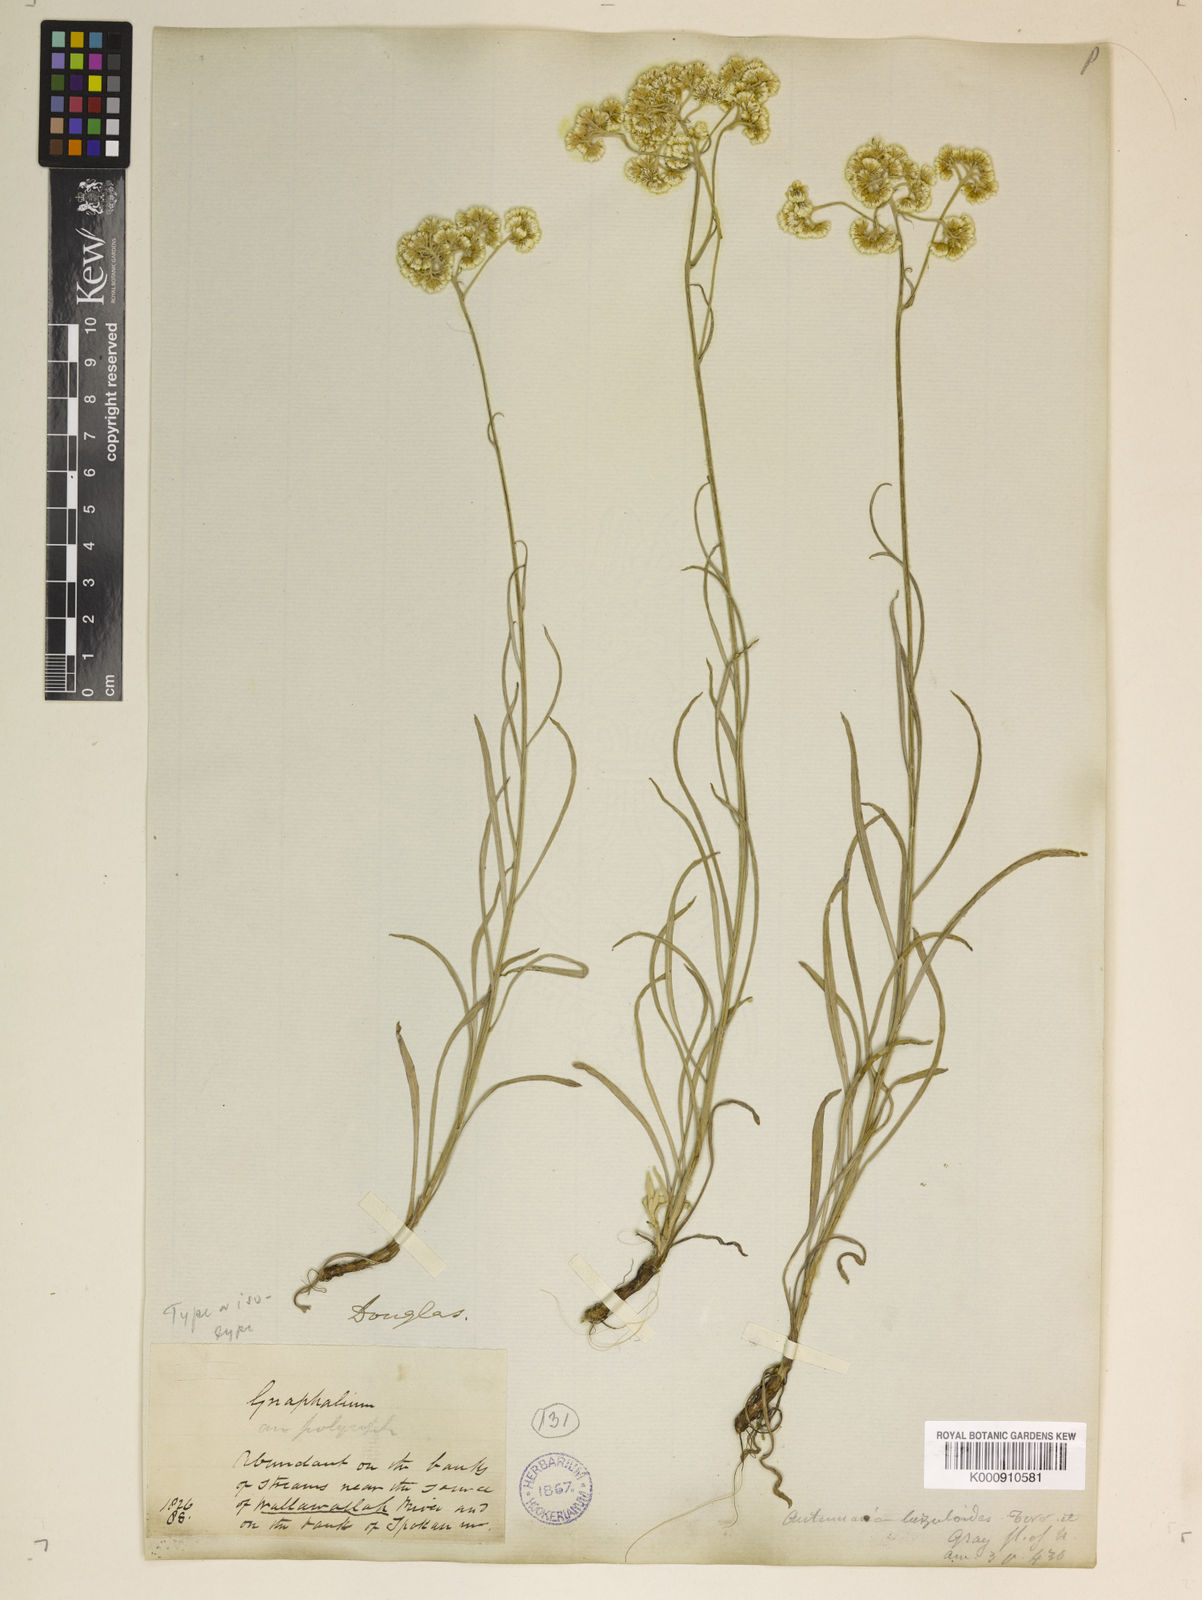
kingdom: Plantae
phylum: Tracheophyta
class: Magnoliopsida
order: Asterales
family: Asteraceae
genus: Antennaria
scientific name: Antennaria luzuloides
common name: Rush pussytoes
